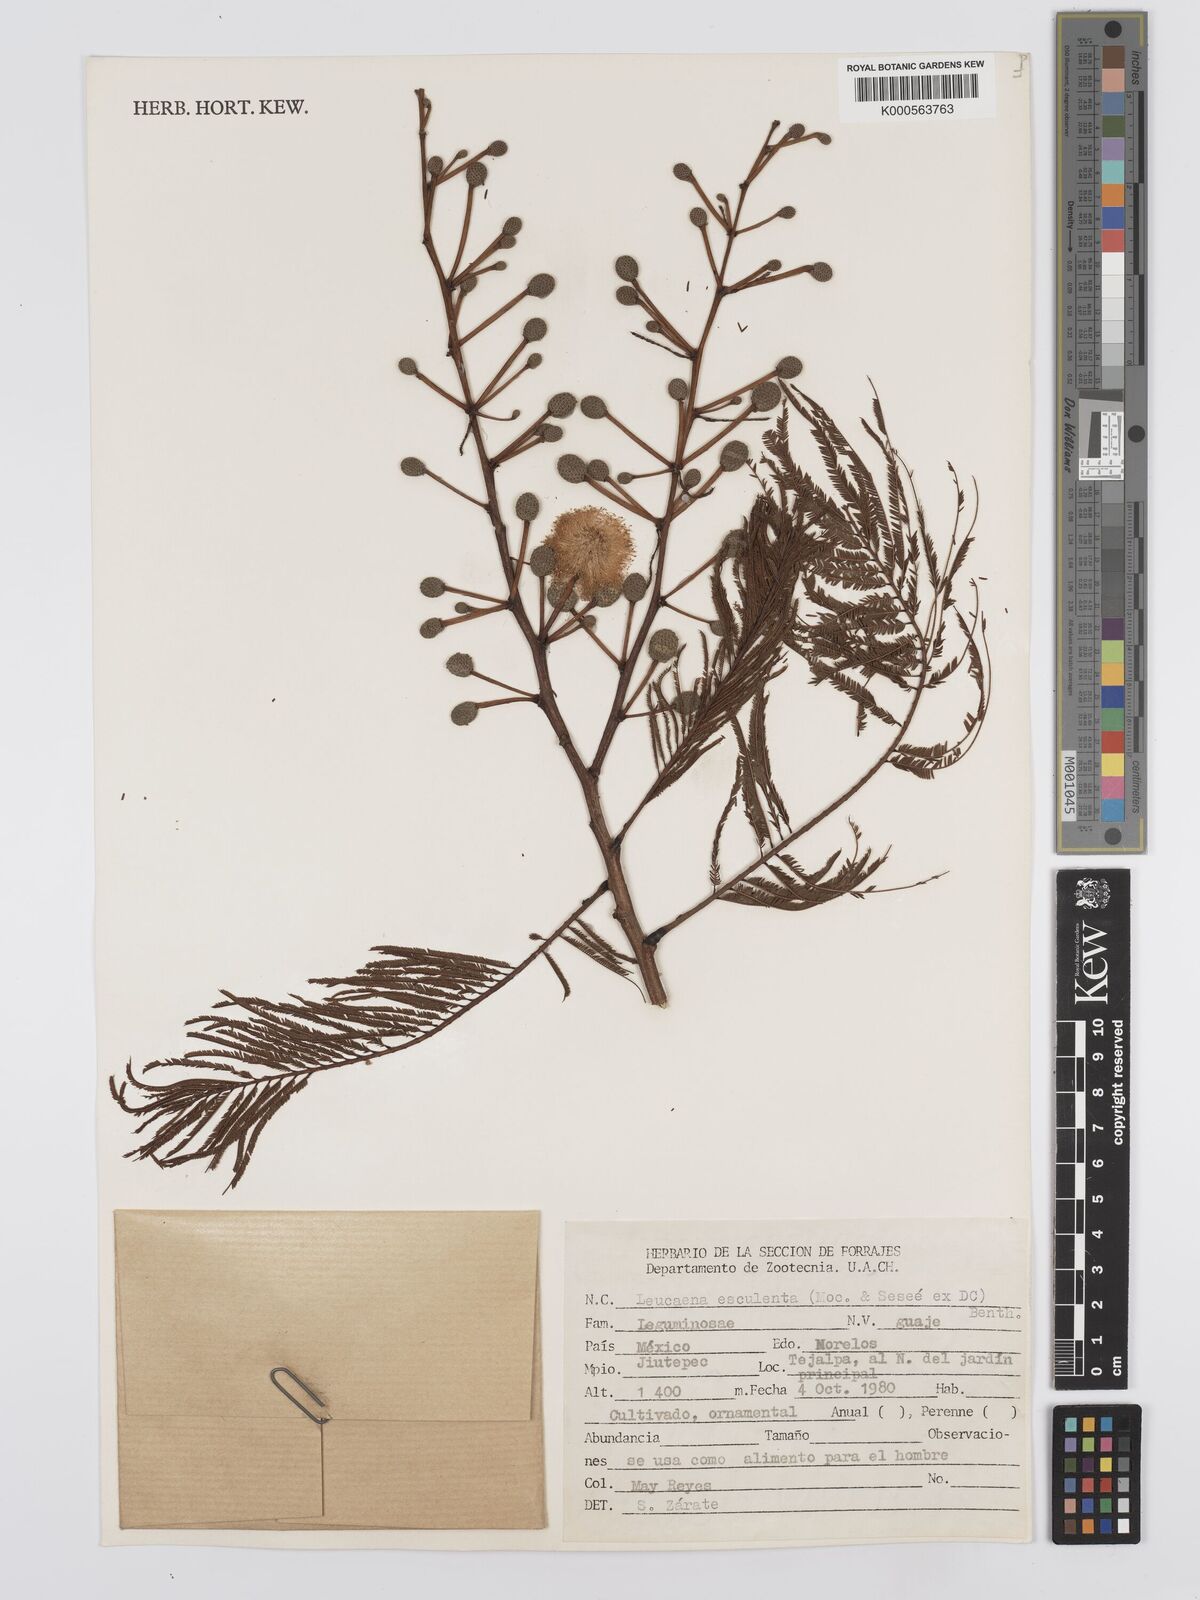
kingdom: Plantae
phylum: Tracheophyta
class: Magnoliopsida
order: Fabales
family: Fabaceae
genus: Leucaena
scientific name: Leucaena
